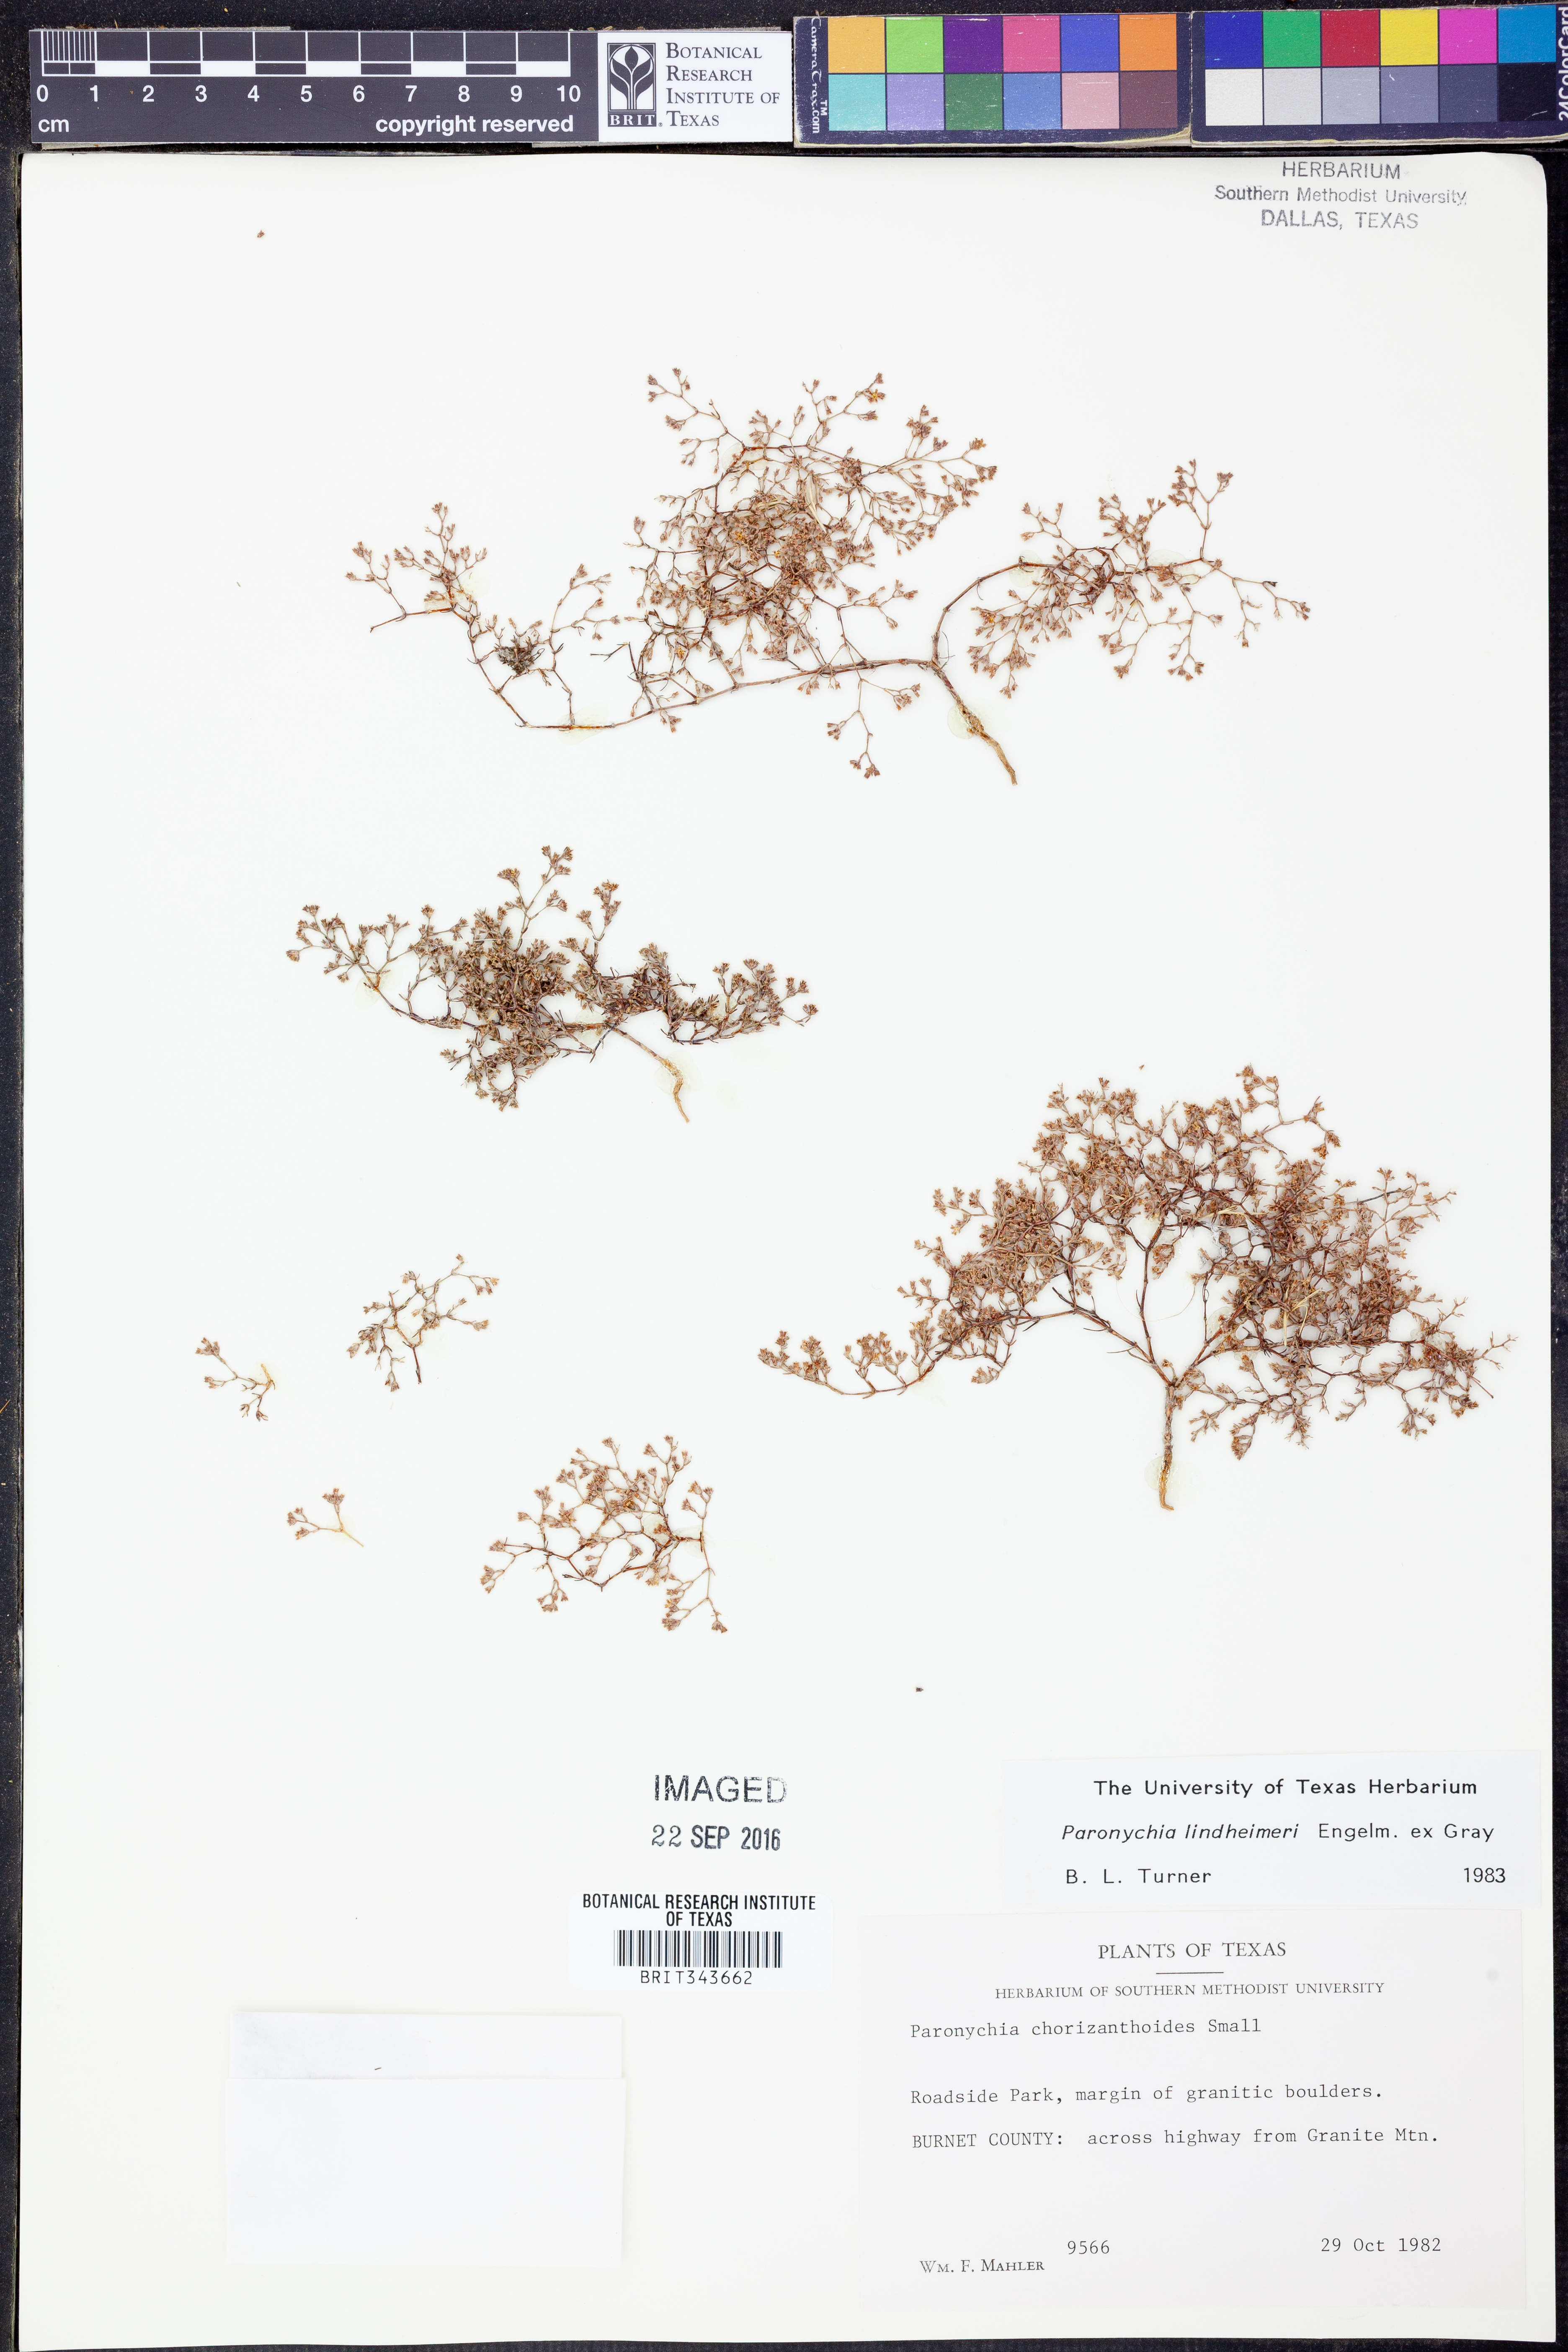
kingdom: Plantae
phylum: Tracheophyta
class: Magnoliopsida
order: Caryophyllales
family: Caryophyllaceae
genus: Paronychia
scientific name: Paronychia lindheimeri
